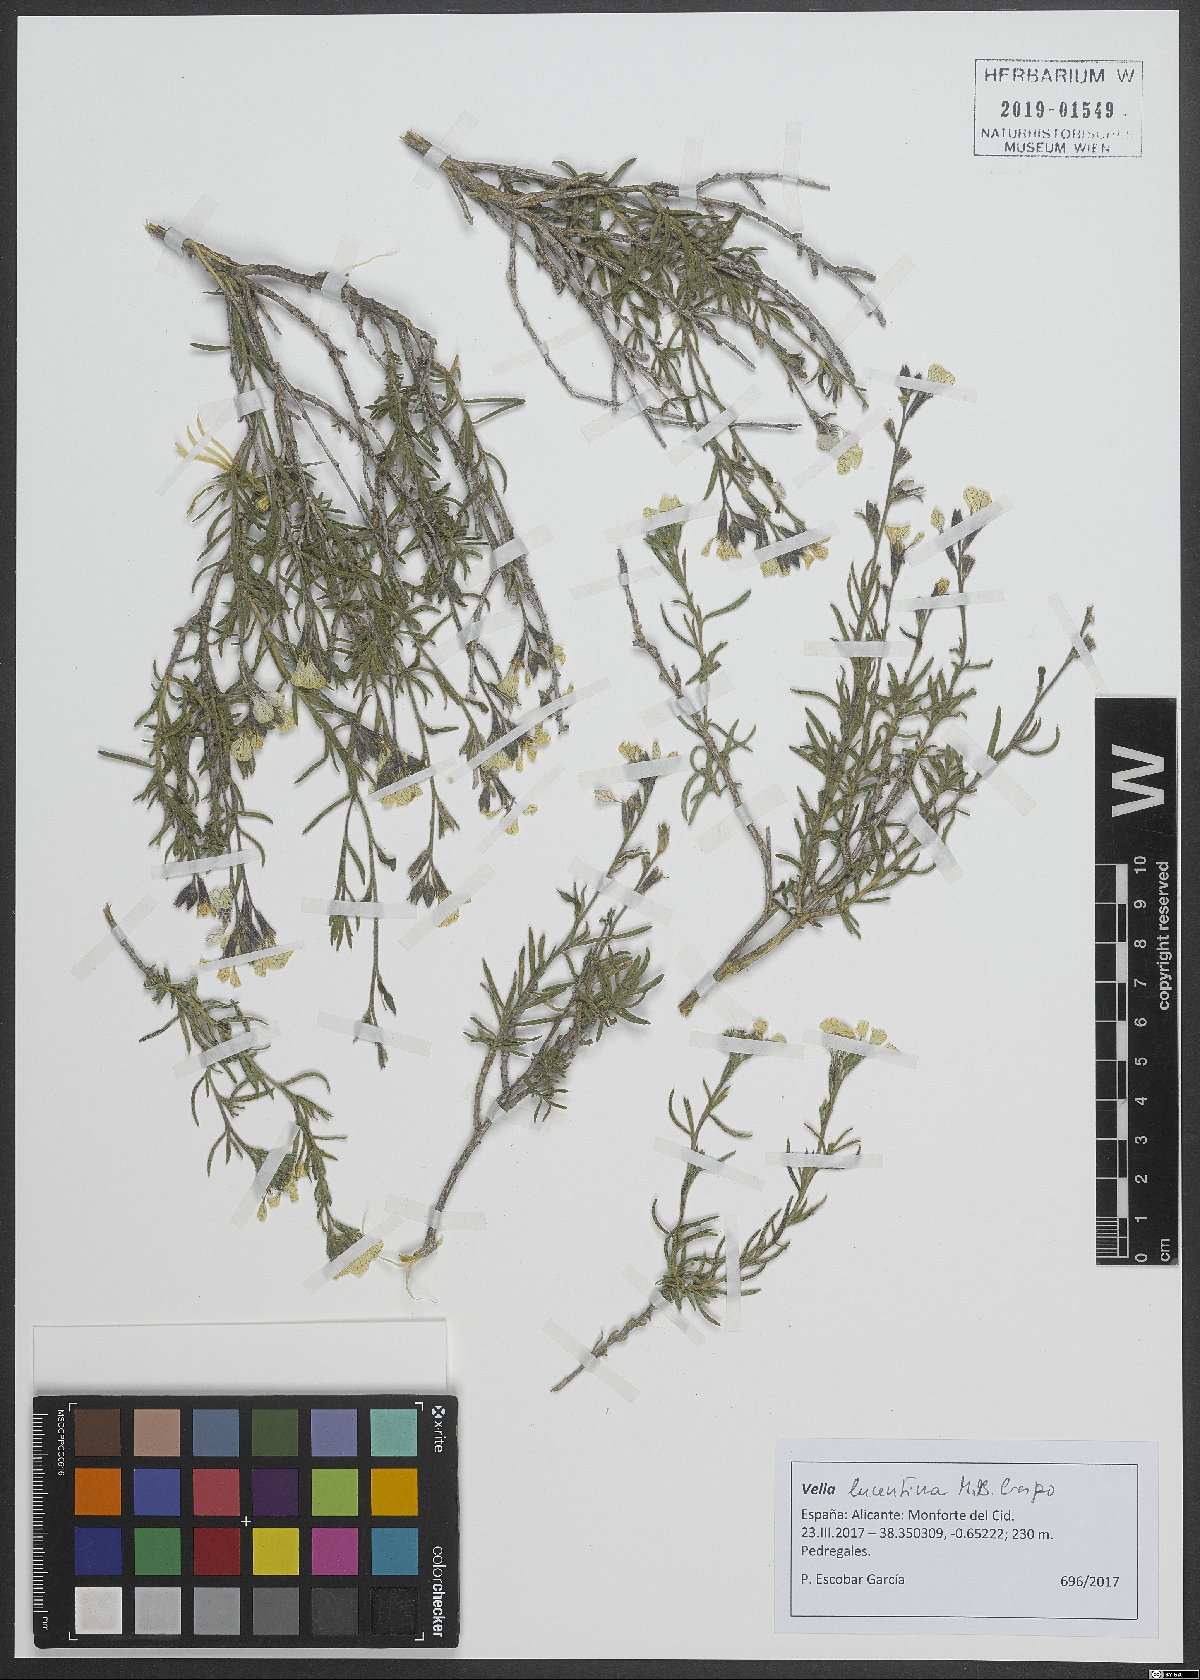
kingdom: Plantae
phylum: Tracheophyta
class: Magnoliopsida
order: Brassicales
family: Brassicaceae
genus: Vella
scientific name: Vella lucentina
